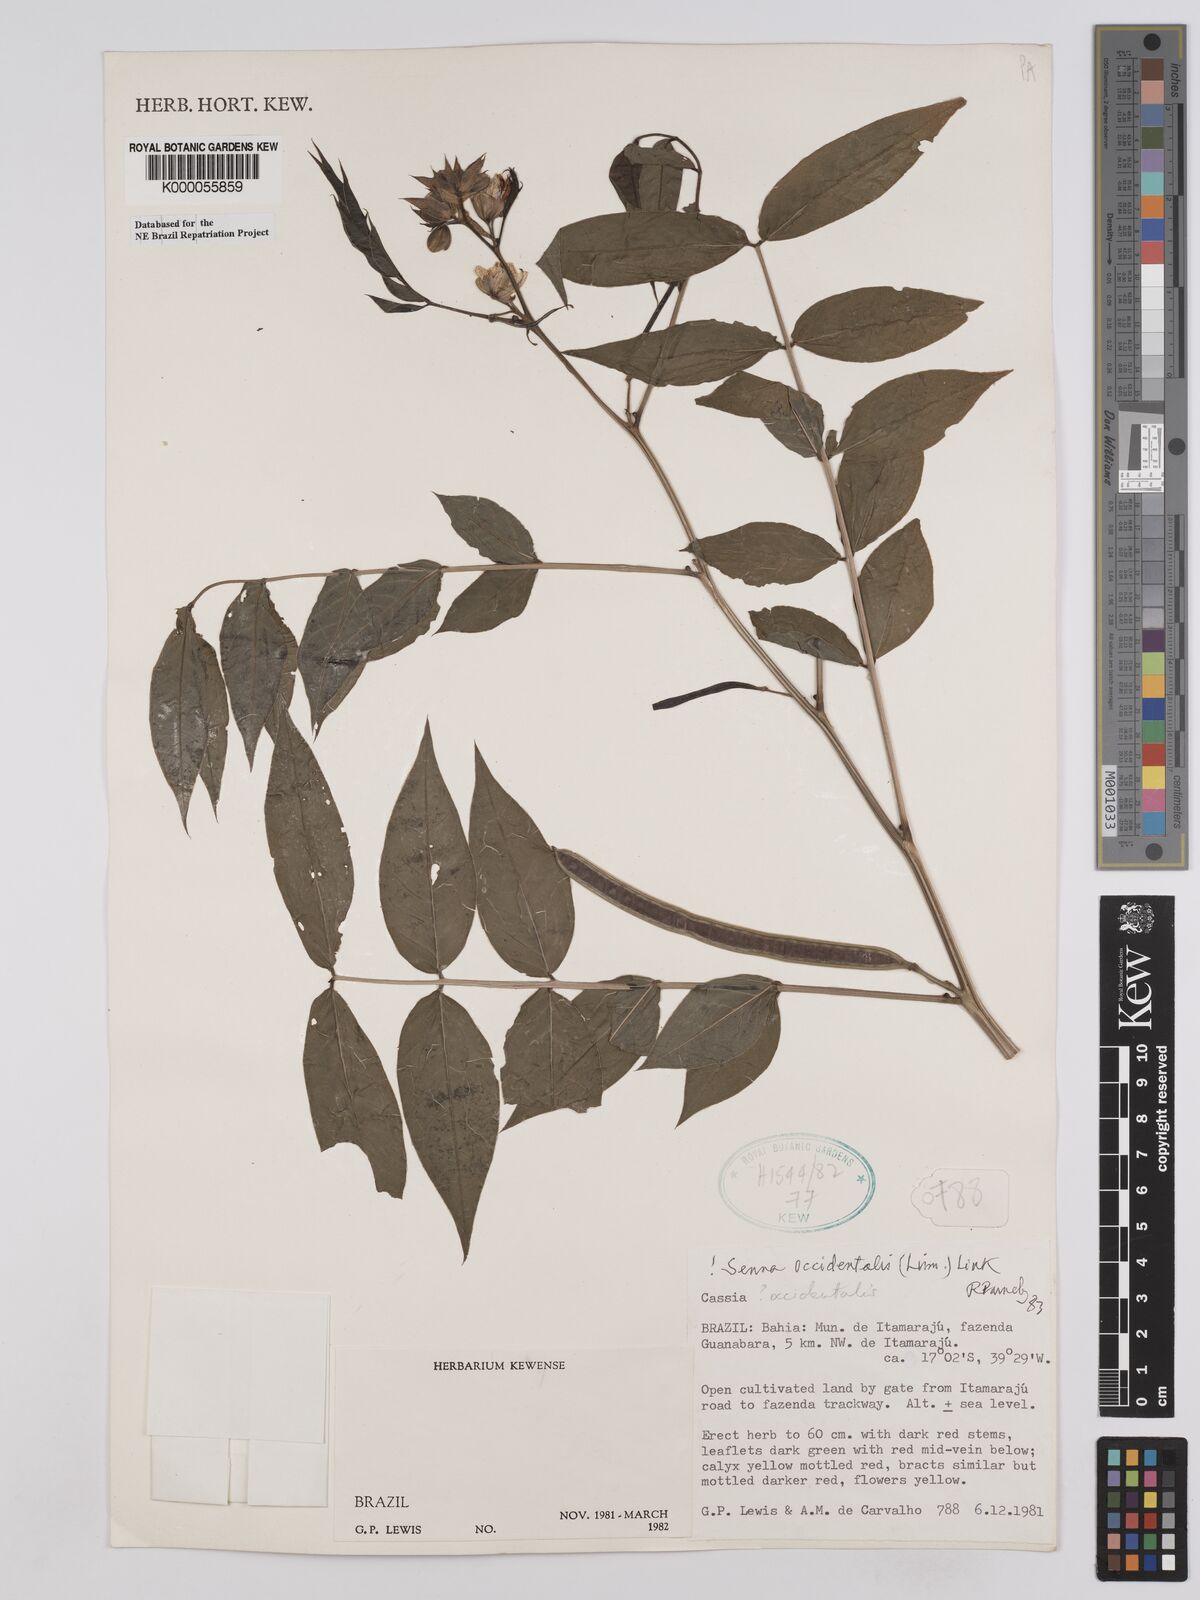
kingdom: Plantae
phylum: Tracheophyta
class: Magnoliopsida
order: Fabales
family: Fabaceae
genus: Senna
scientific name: Senna occidentalis
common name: Septicweed
